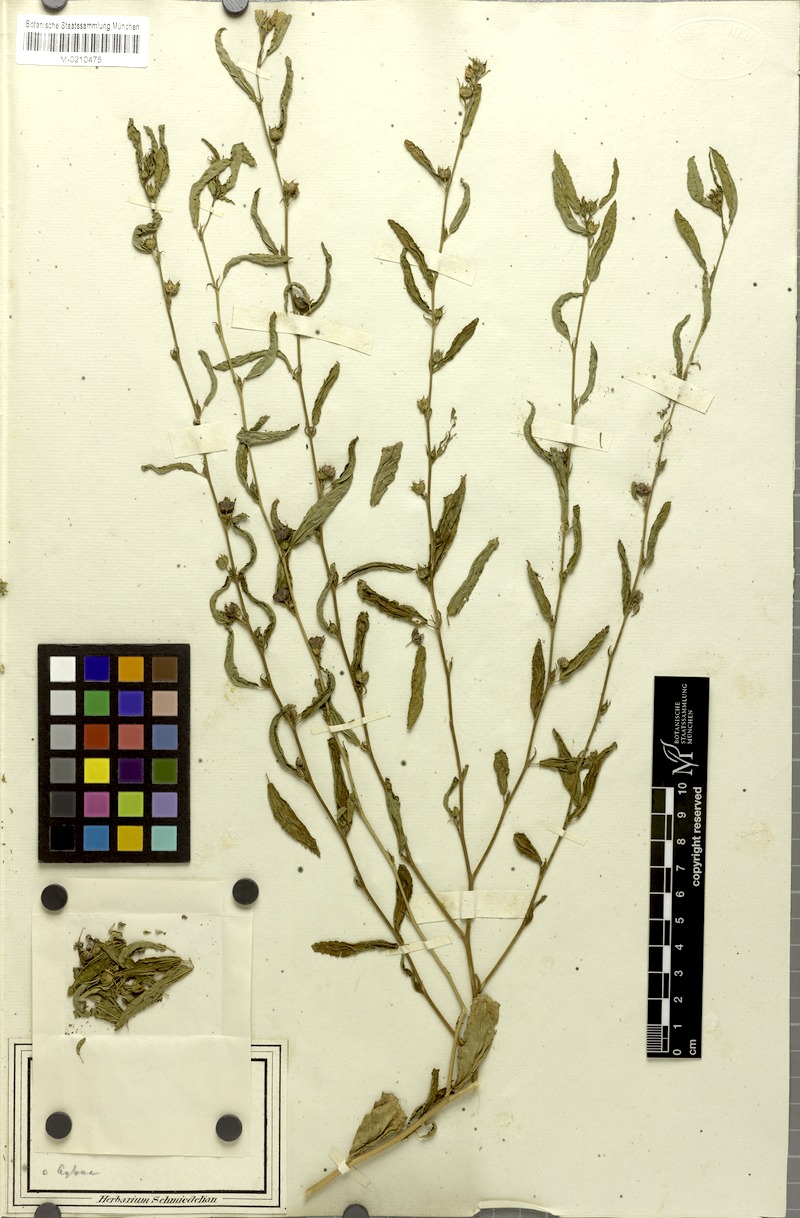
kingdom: Plantae
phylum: Tracheophyta
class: Magnoliopsida
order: Malvales
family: Malvaceae
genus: Sida
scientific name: Sida acuta
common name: Common wireweed
